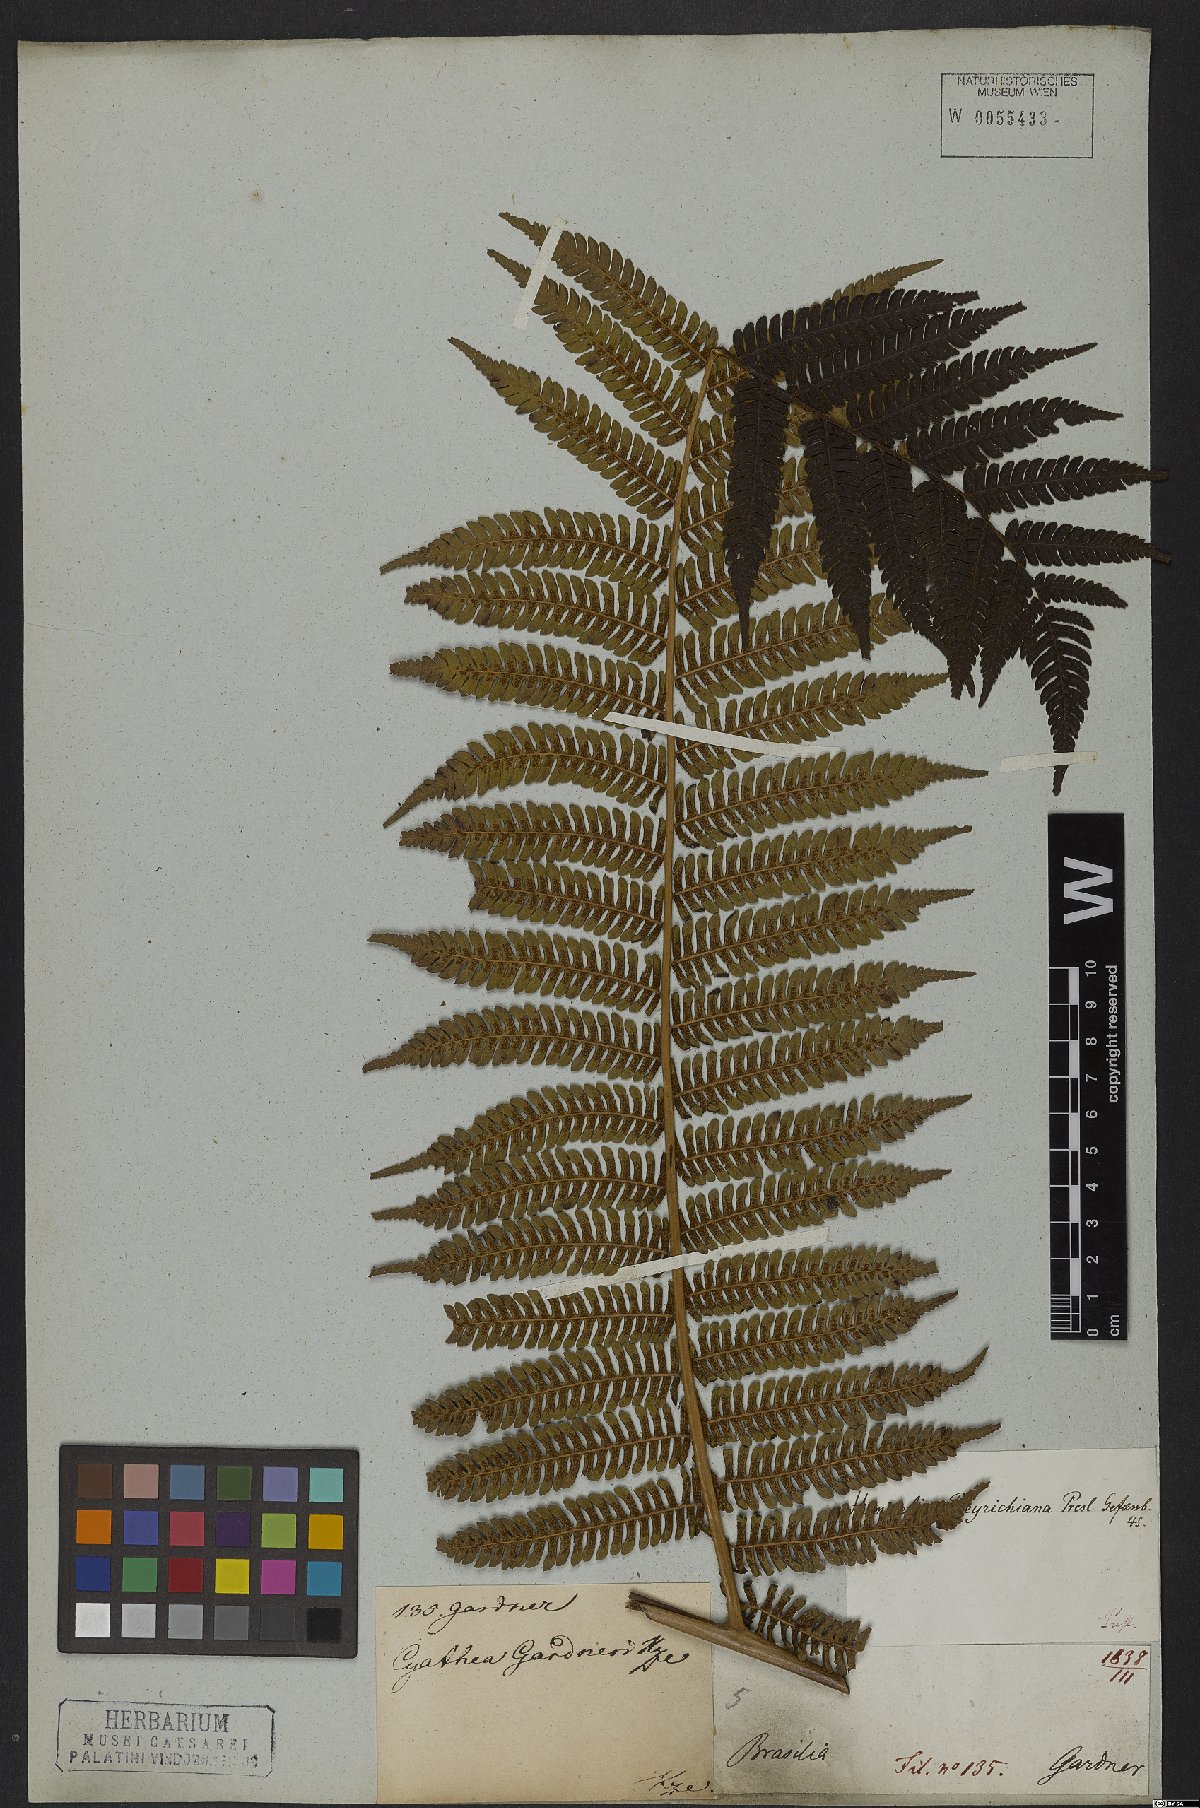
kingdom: Plantae
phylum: Tracheophyta
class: Polypodiopsida
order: Cyatheales
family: Cyatheaceae
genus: Alsophila
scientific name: Alsophila setosa
